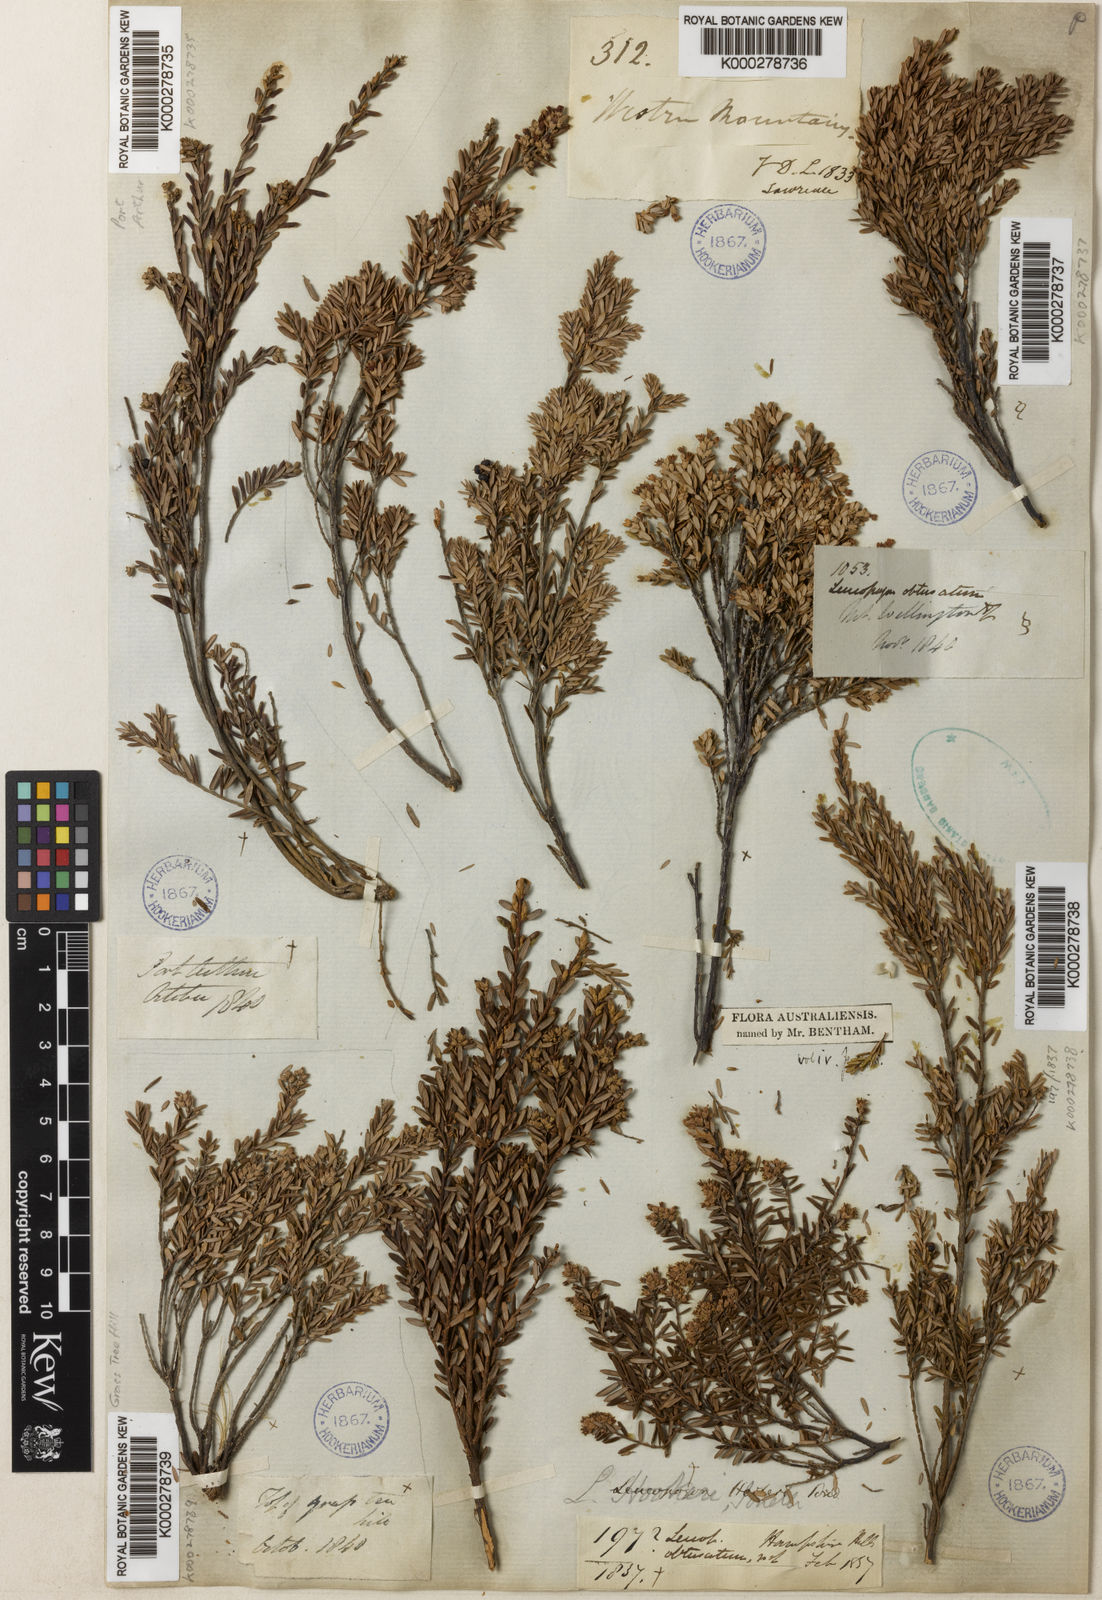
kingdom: Plantae
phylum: Tracheophyta
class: Magnoliopsida
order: Ericales
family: Ericaceae
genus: Acrothamnus
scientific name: Acrothamnus hookeri
